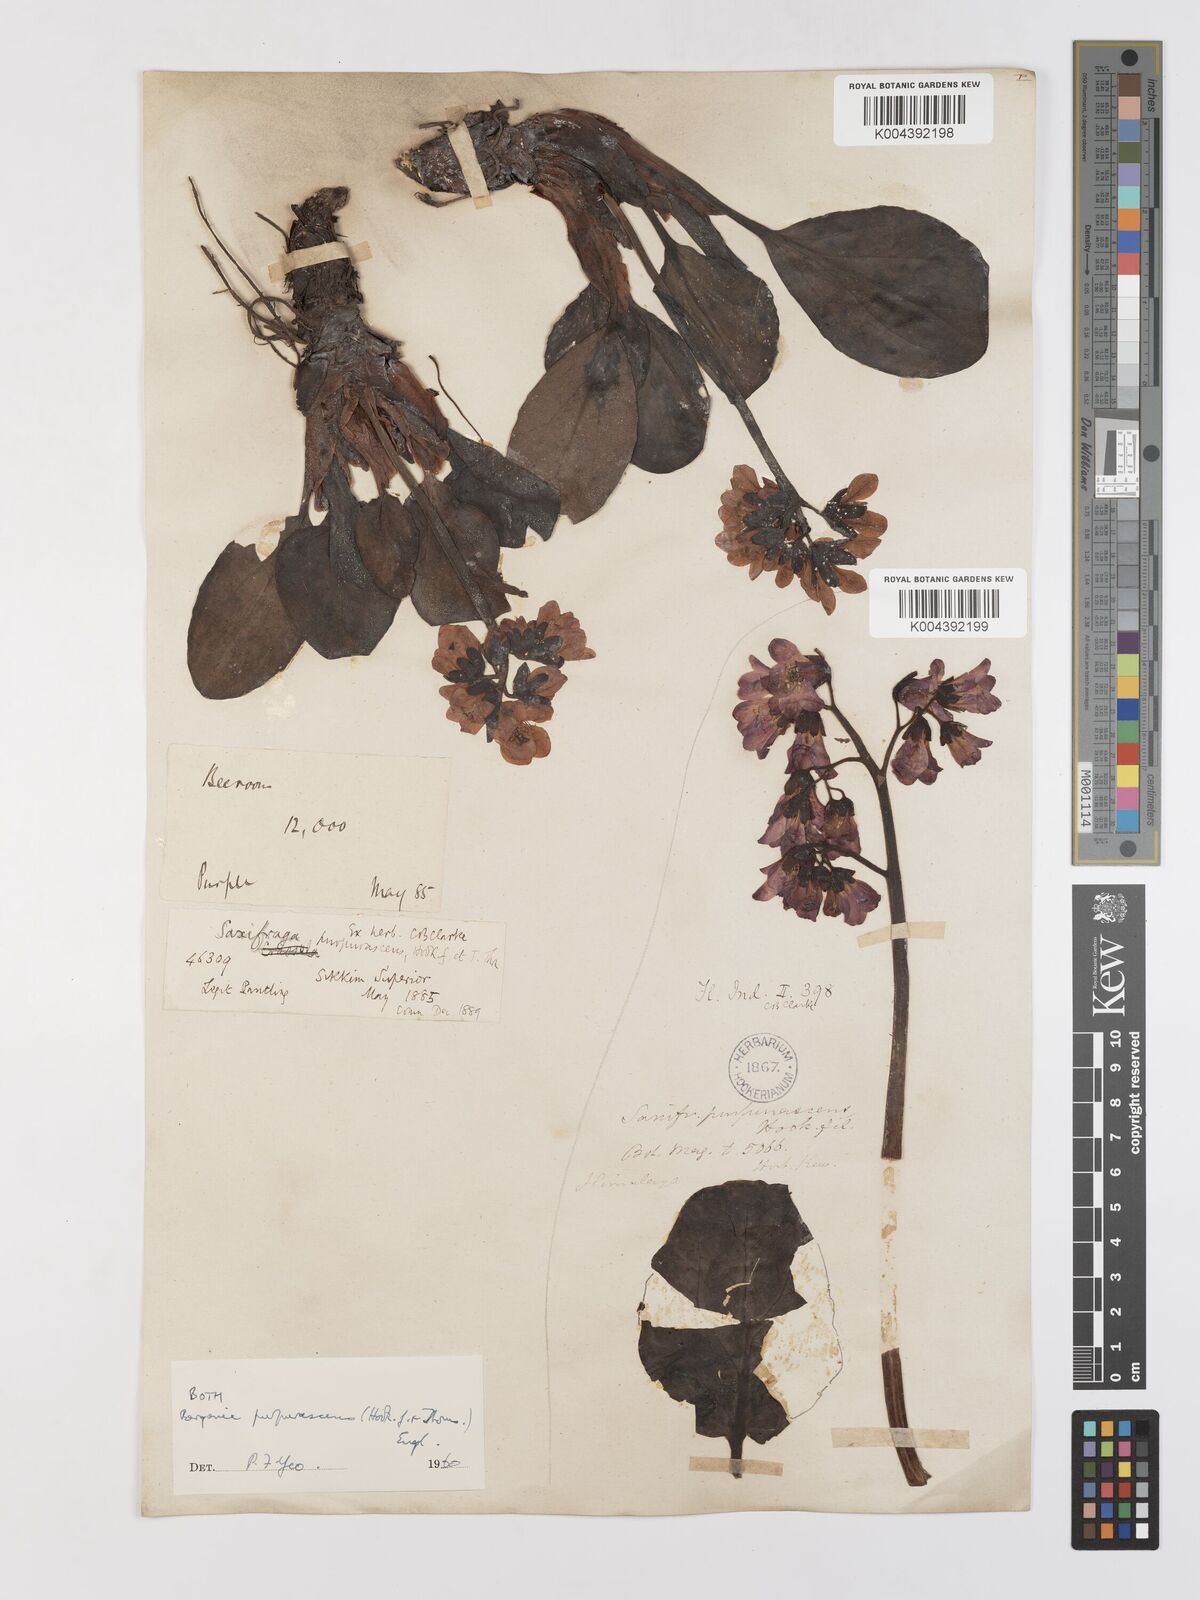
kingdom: Plantae
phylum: Tracheophyta
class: Magnoliopsida
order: Saxifragales
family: Saxifragaceae
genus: Bergenia
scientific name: Bergenia purpurascens
